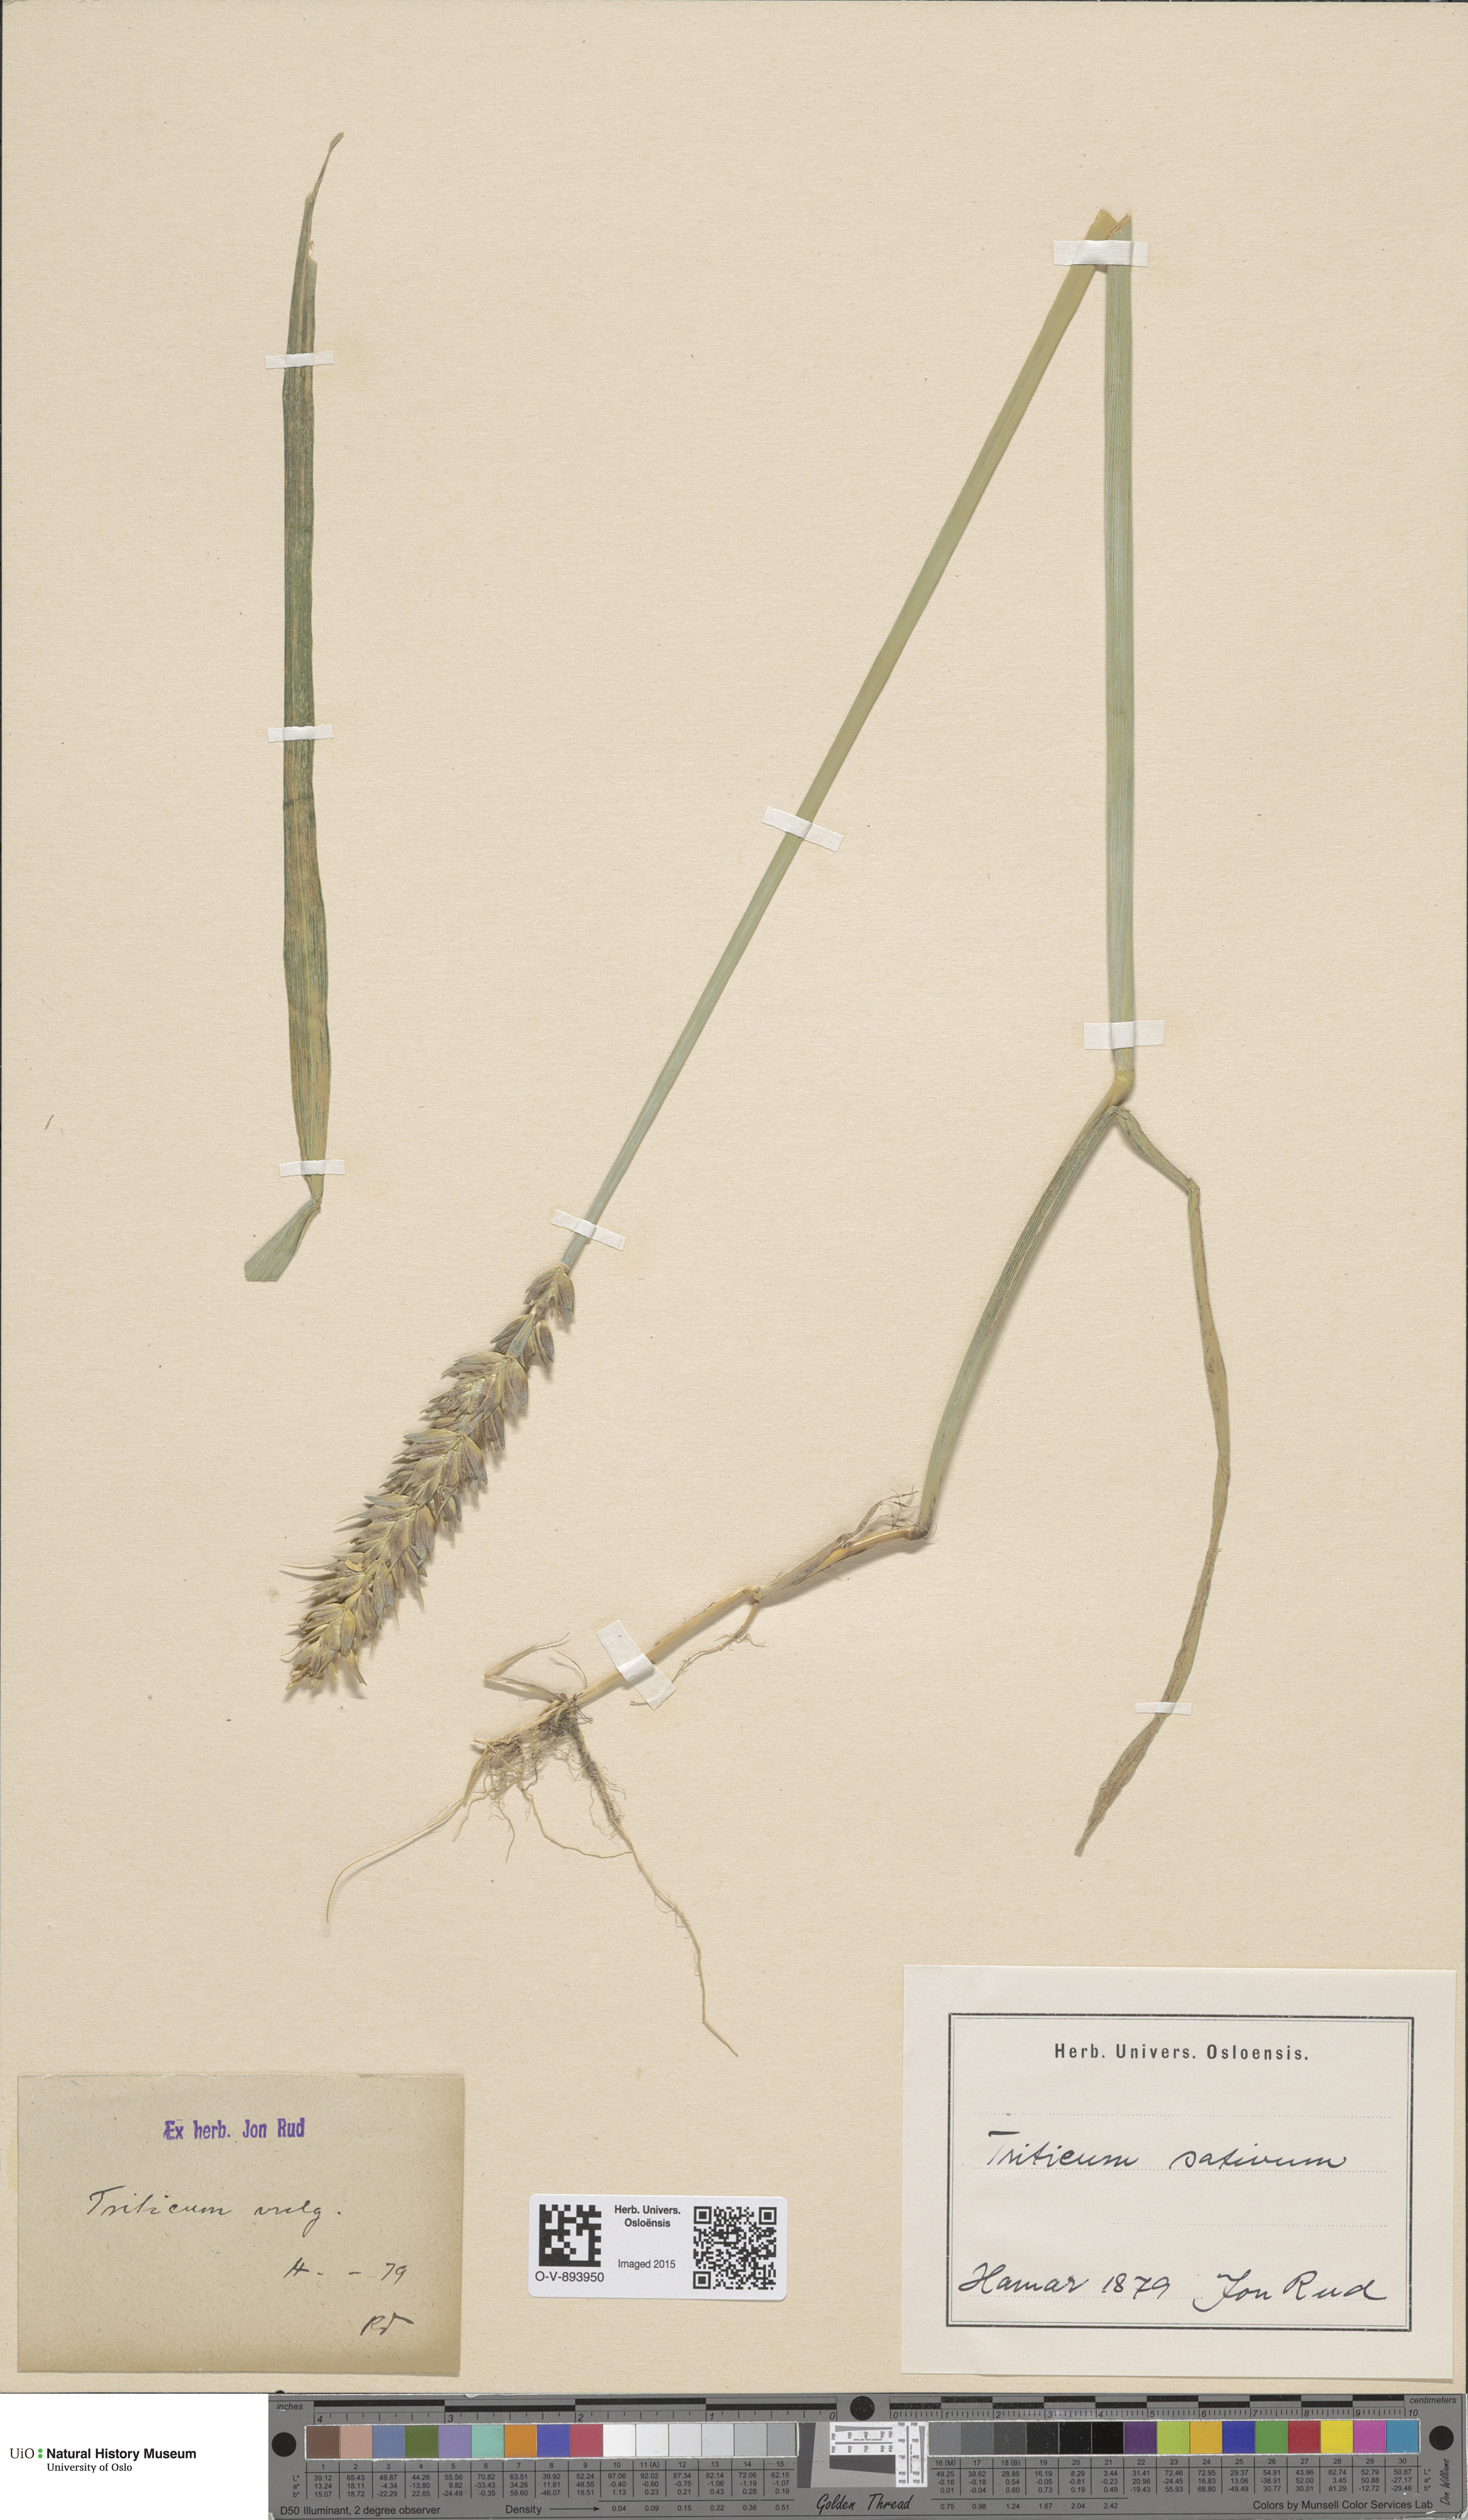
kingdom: Plantae
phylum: Tracheophyta
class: Liliopsida
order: Poales
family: Poaceae
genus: Triticum
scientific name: Triticum aestivum
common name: Common wheat
